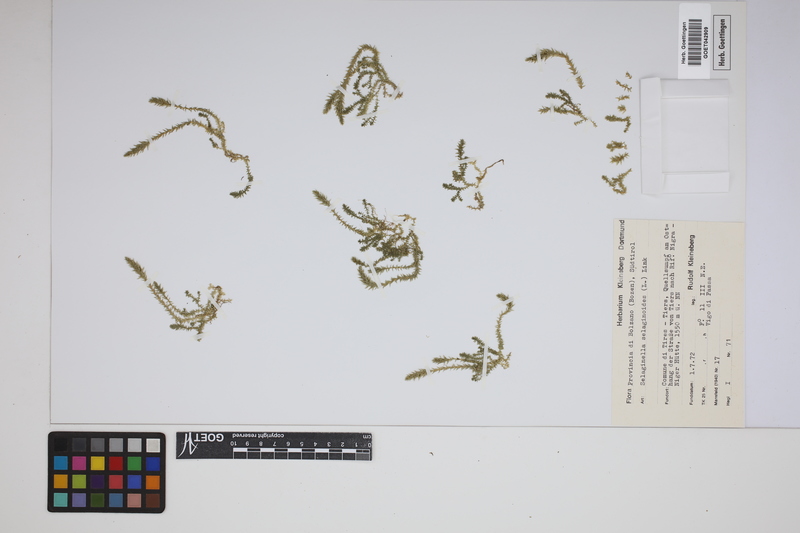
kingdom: Plantae
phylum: Tracheophyta
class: Lycopodiopsida
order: Selaginellales
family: Selaginellaceae
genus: Selaginella
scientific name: Selaginella selaginoides
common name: Prickly mountain-moss
